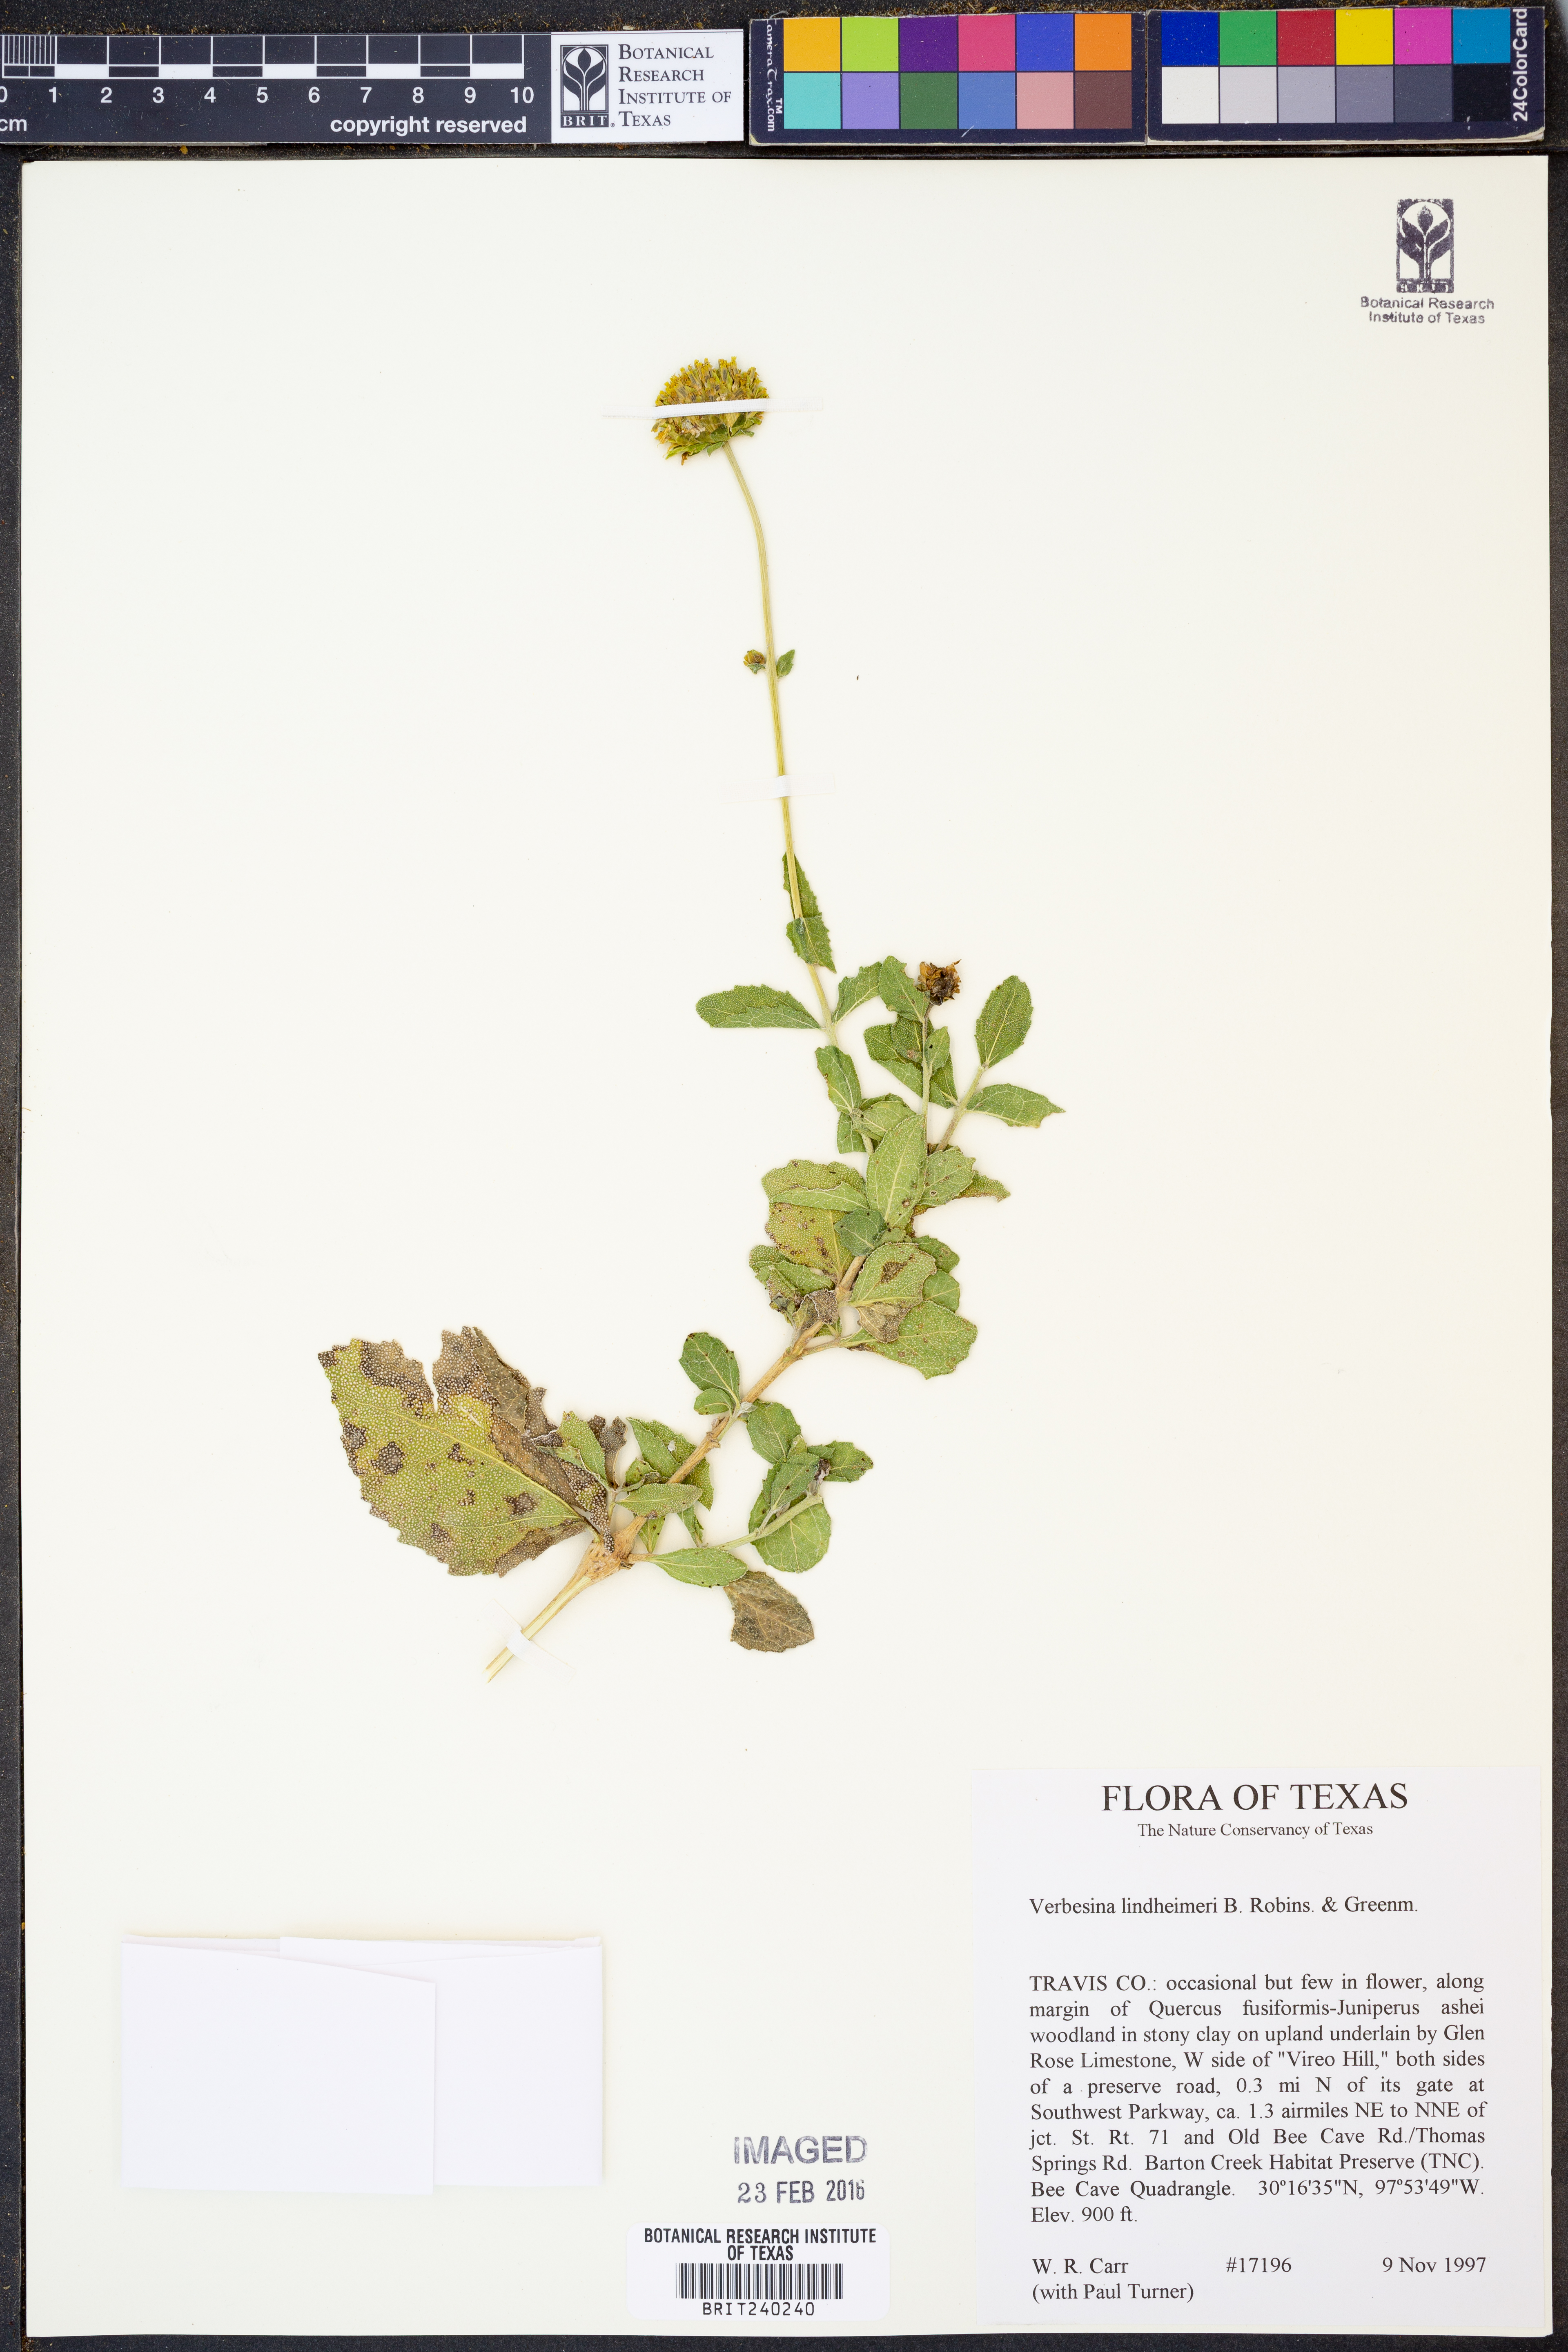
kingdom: Plantae
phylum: Tracheophyta
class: Magnoliopsida
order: Asterales
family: Asteraceae
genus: Verbesina
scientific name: Verbesina lindheimeri
